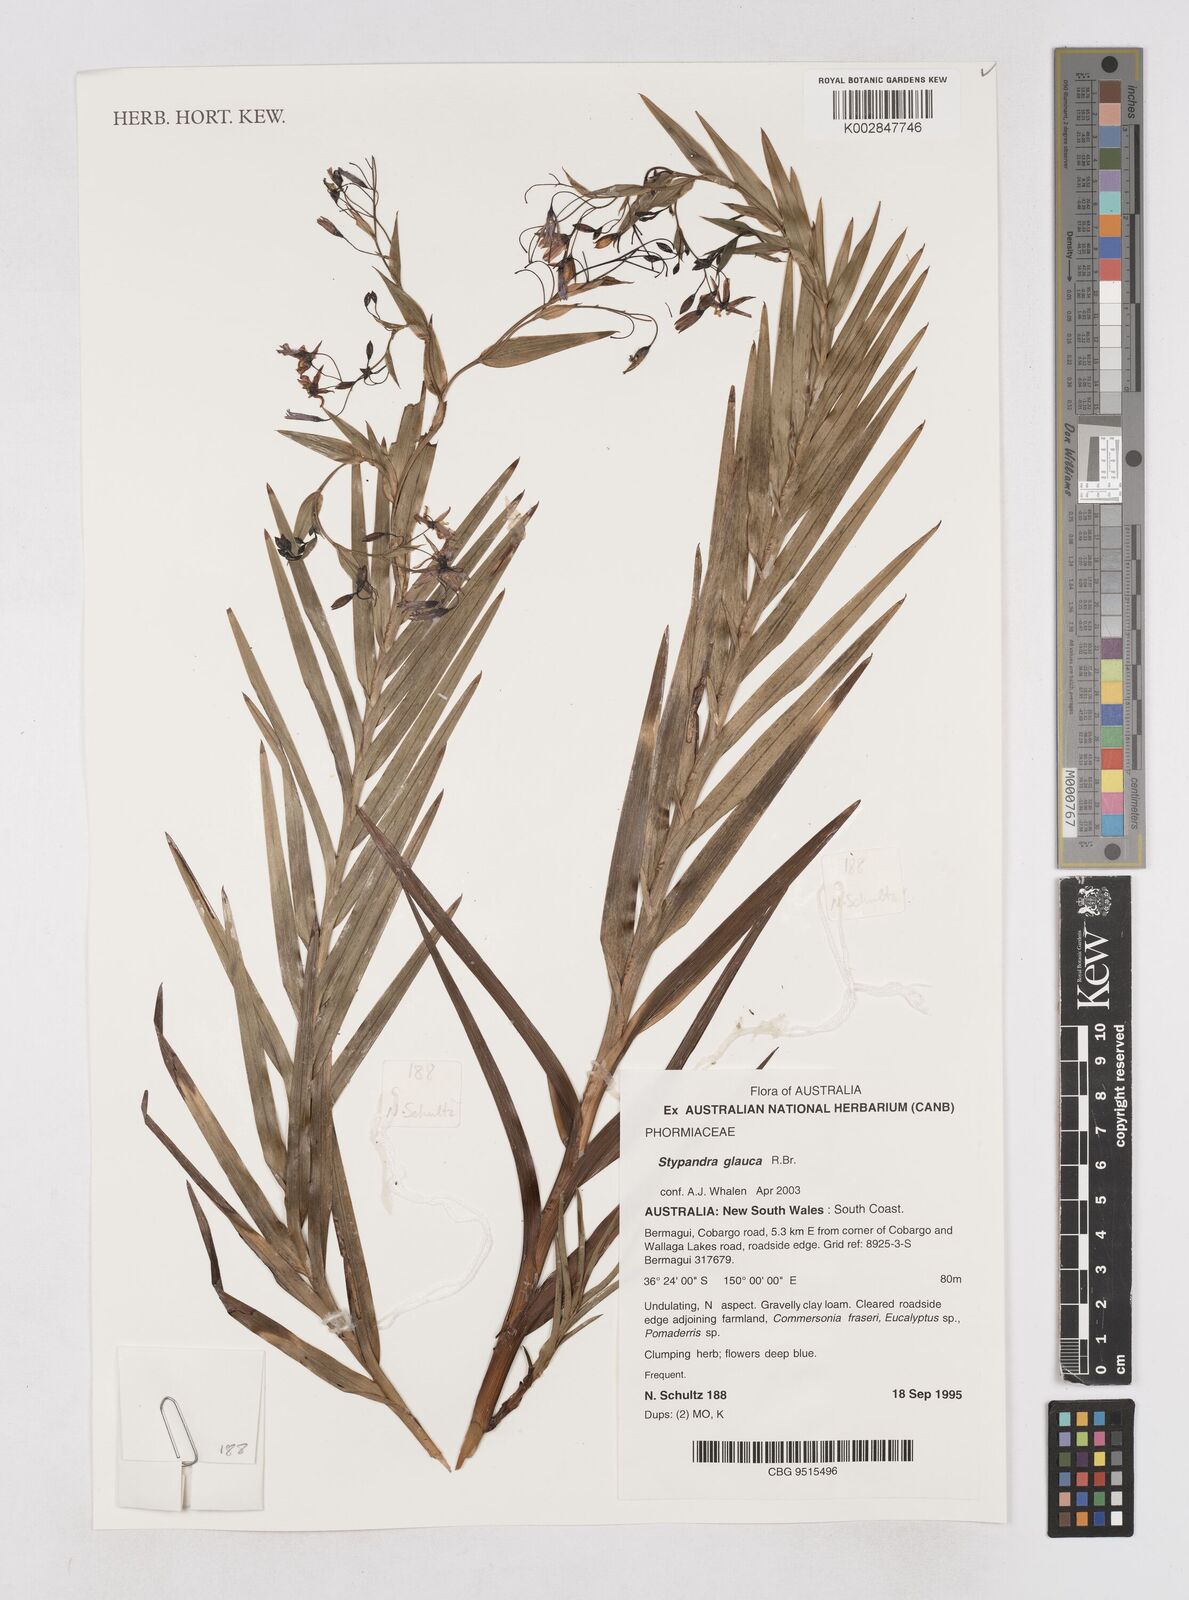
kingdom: Plantae
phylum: Tracheophyta
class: Liliopsida
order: Asparagales
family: Asphodelaceae
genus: Stypandra
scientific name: Stypandra glauca
